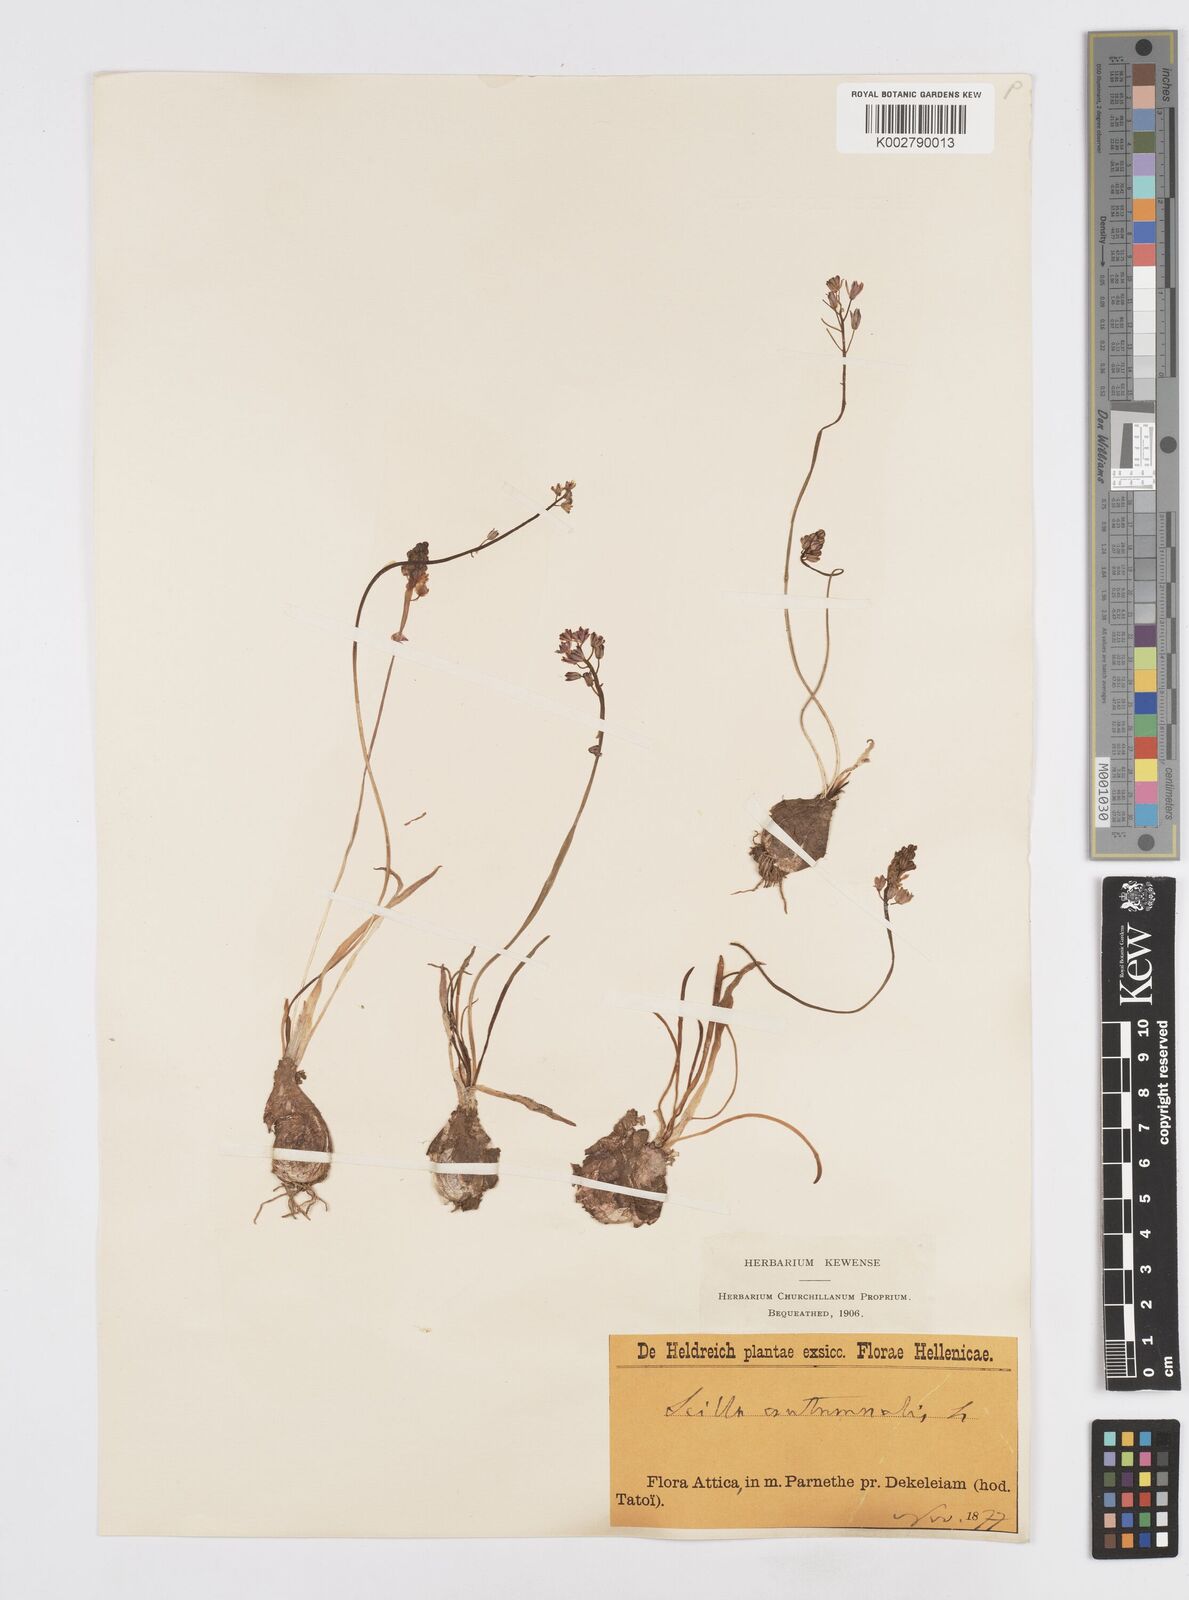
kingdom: Plantae
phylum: Tracheophyta
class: Liliopsida
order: Asparagales
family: Asparagaceae
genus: Prospero
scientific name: Prospero autumnale
